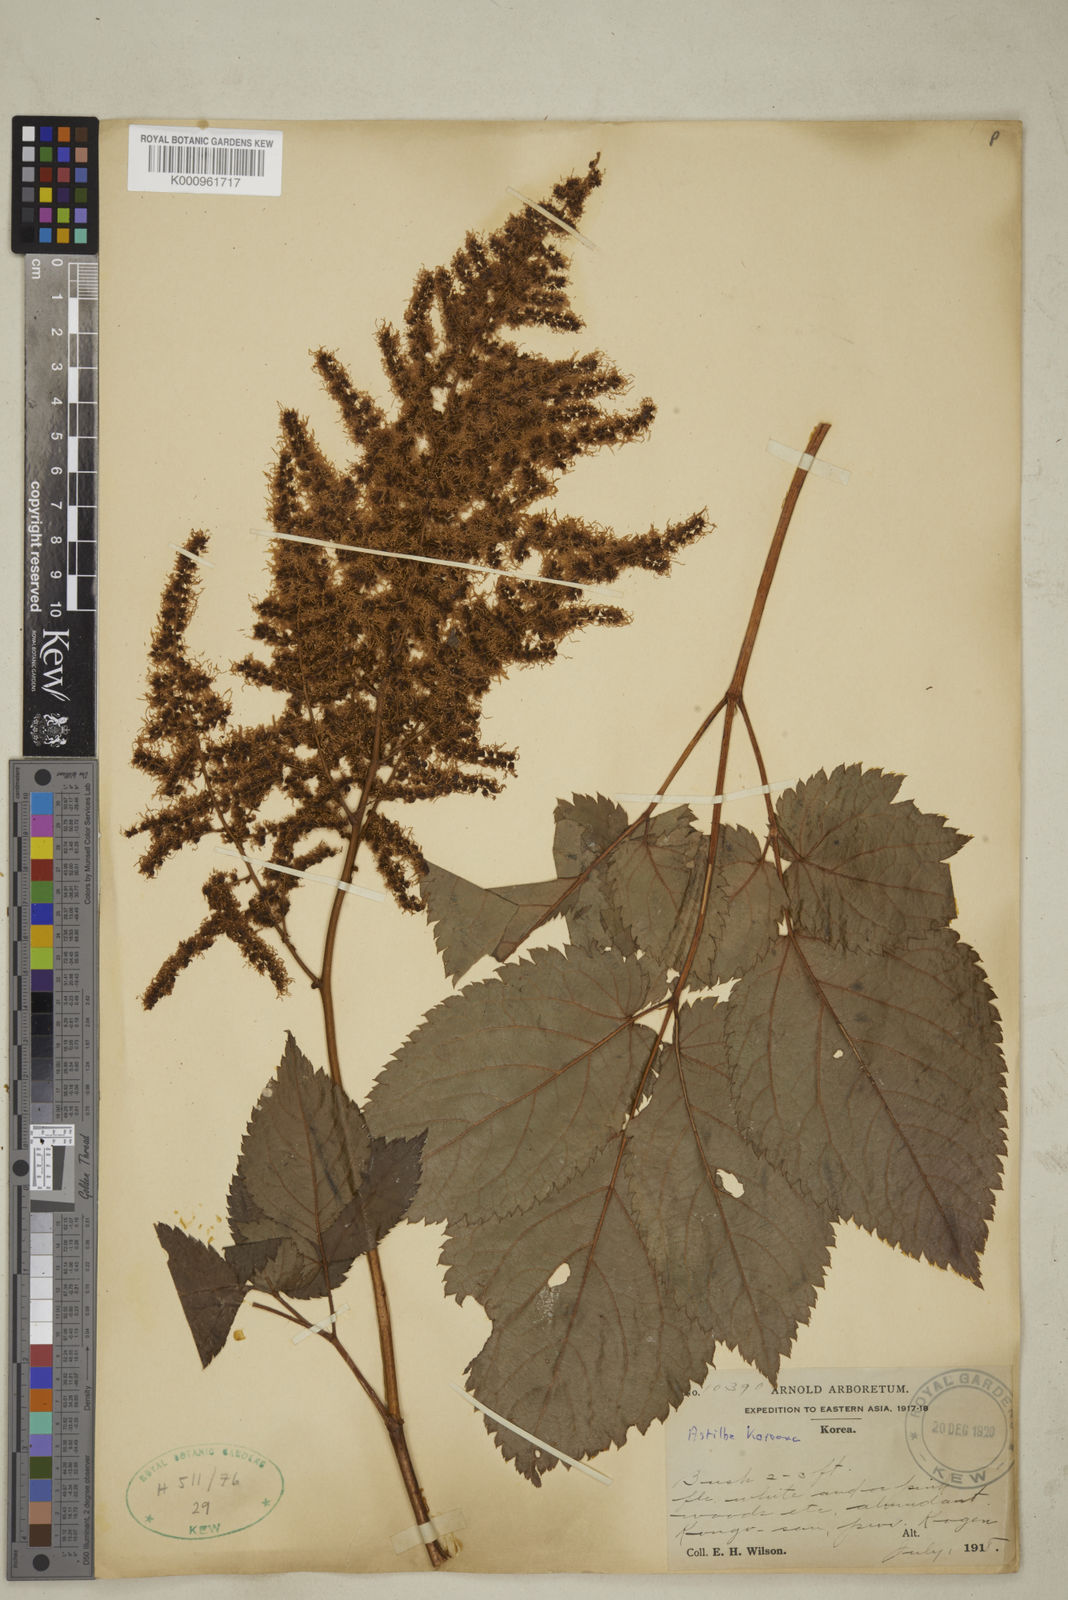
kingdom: Plantae
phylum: Tracheophyta
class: Magnoliopsida
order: Saxifragales
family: Saxifragaceae
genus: Astilbe
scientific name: Astilbe grandis
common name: Korean astilbe
